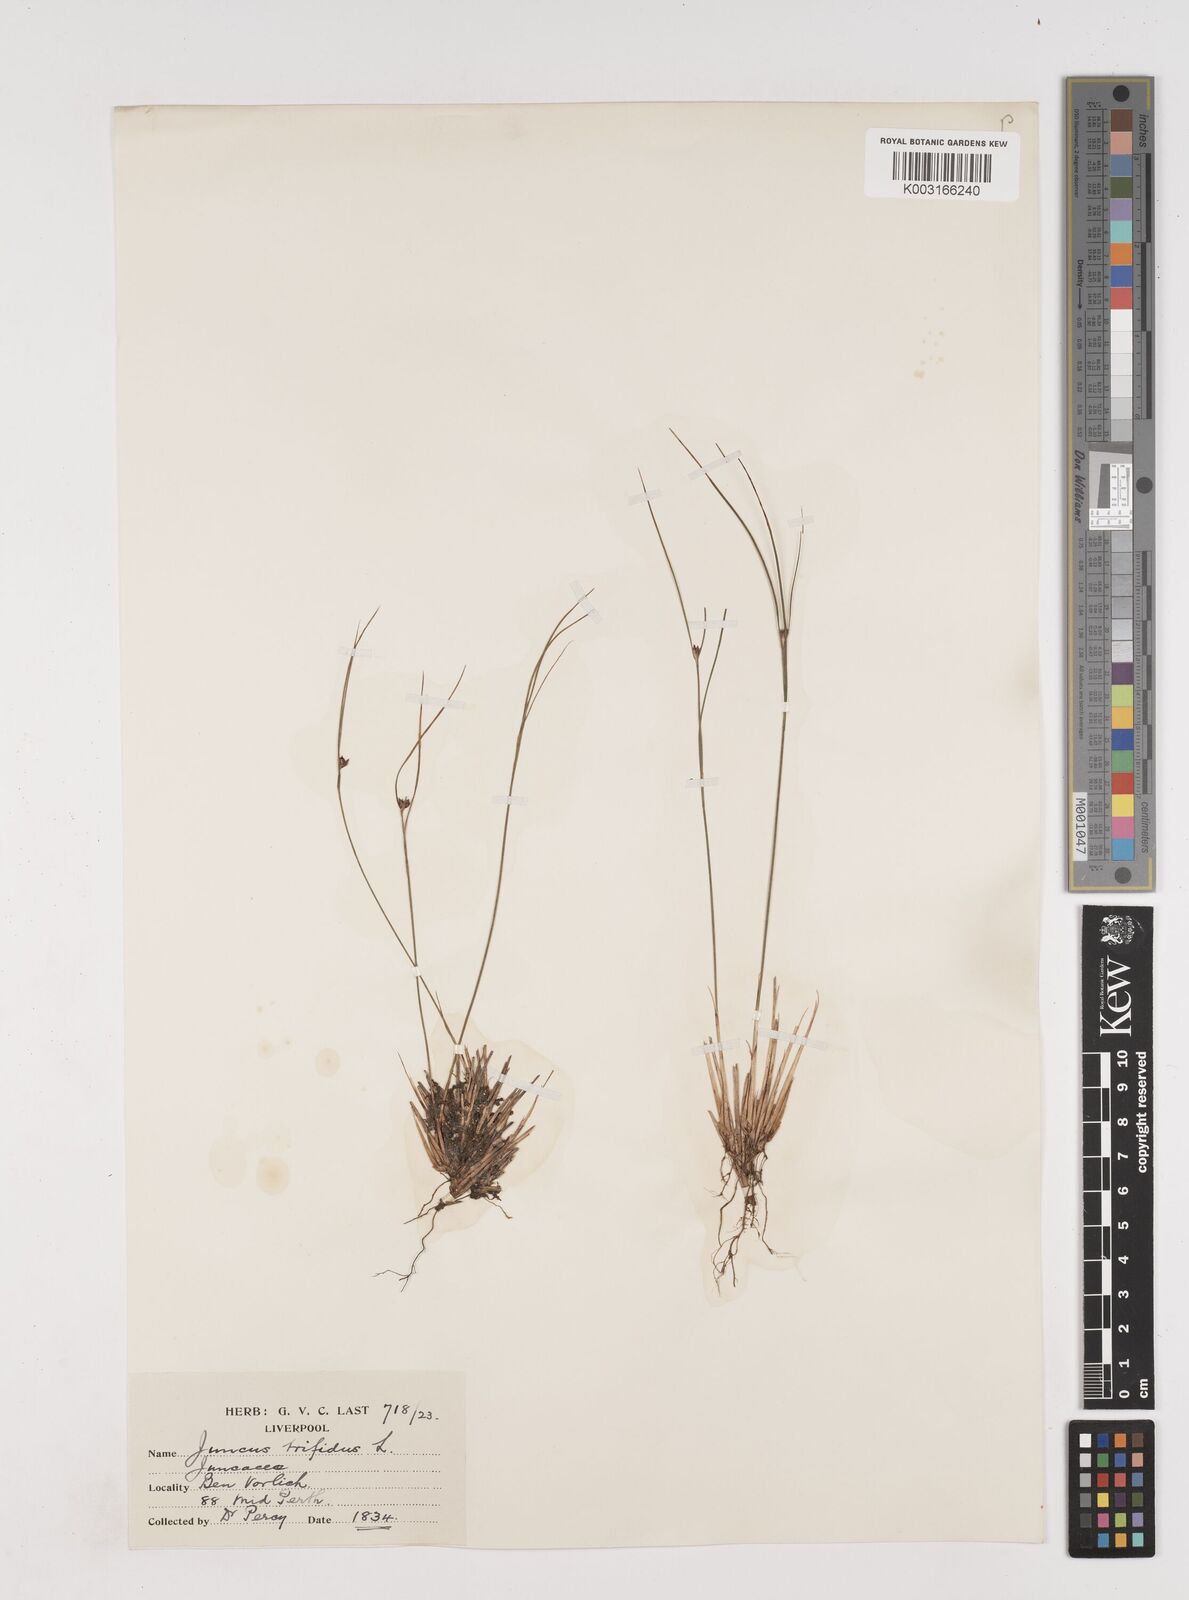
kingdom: Plantae
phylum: Tracheophyta
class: Liliopsida
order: Poales
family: Juncaceae
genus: Oreojuncus
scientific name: Oreojuncus trifidus
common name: Highland rush
